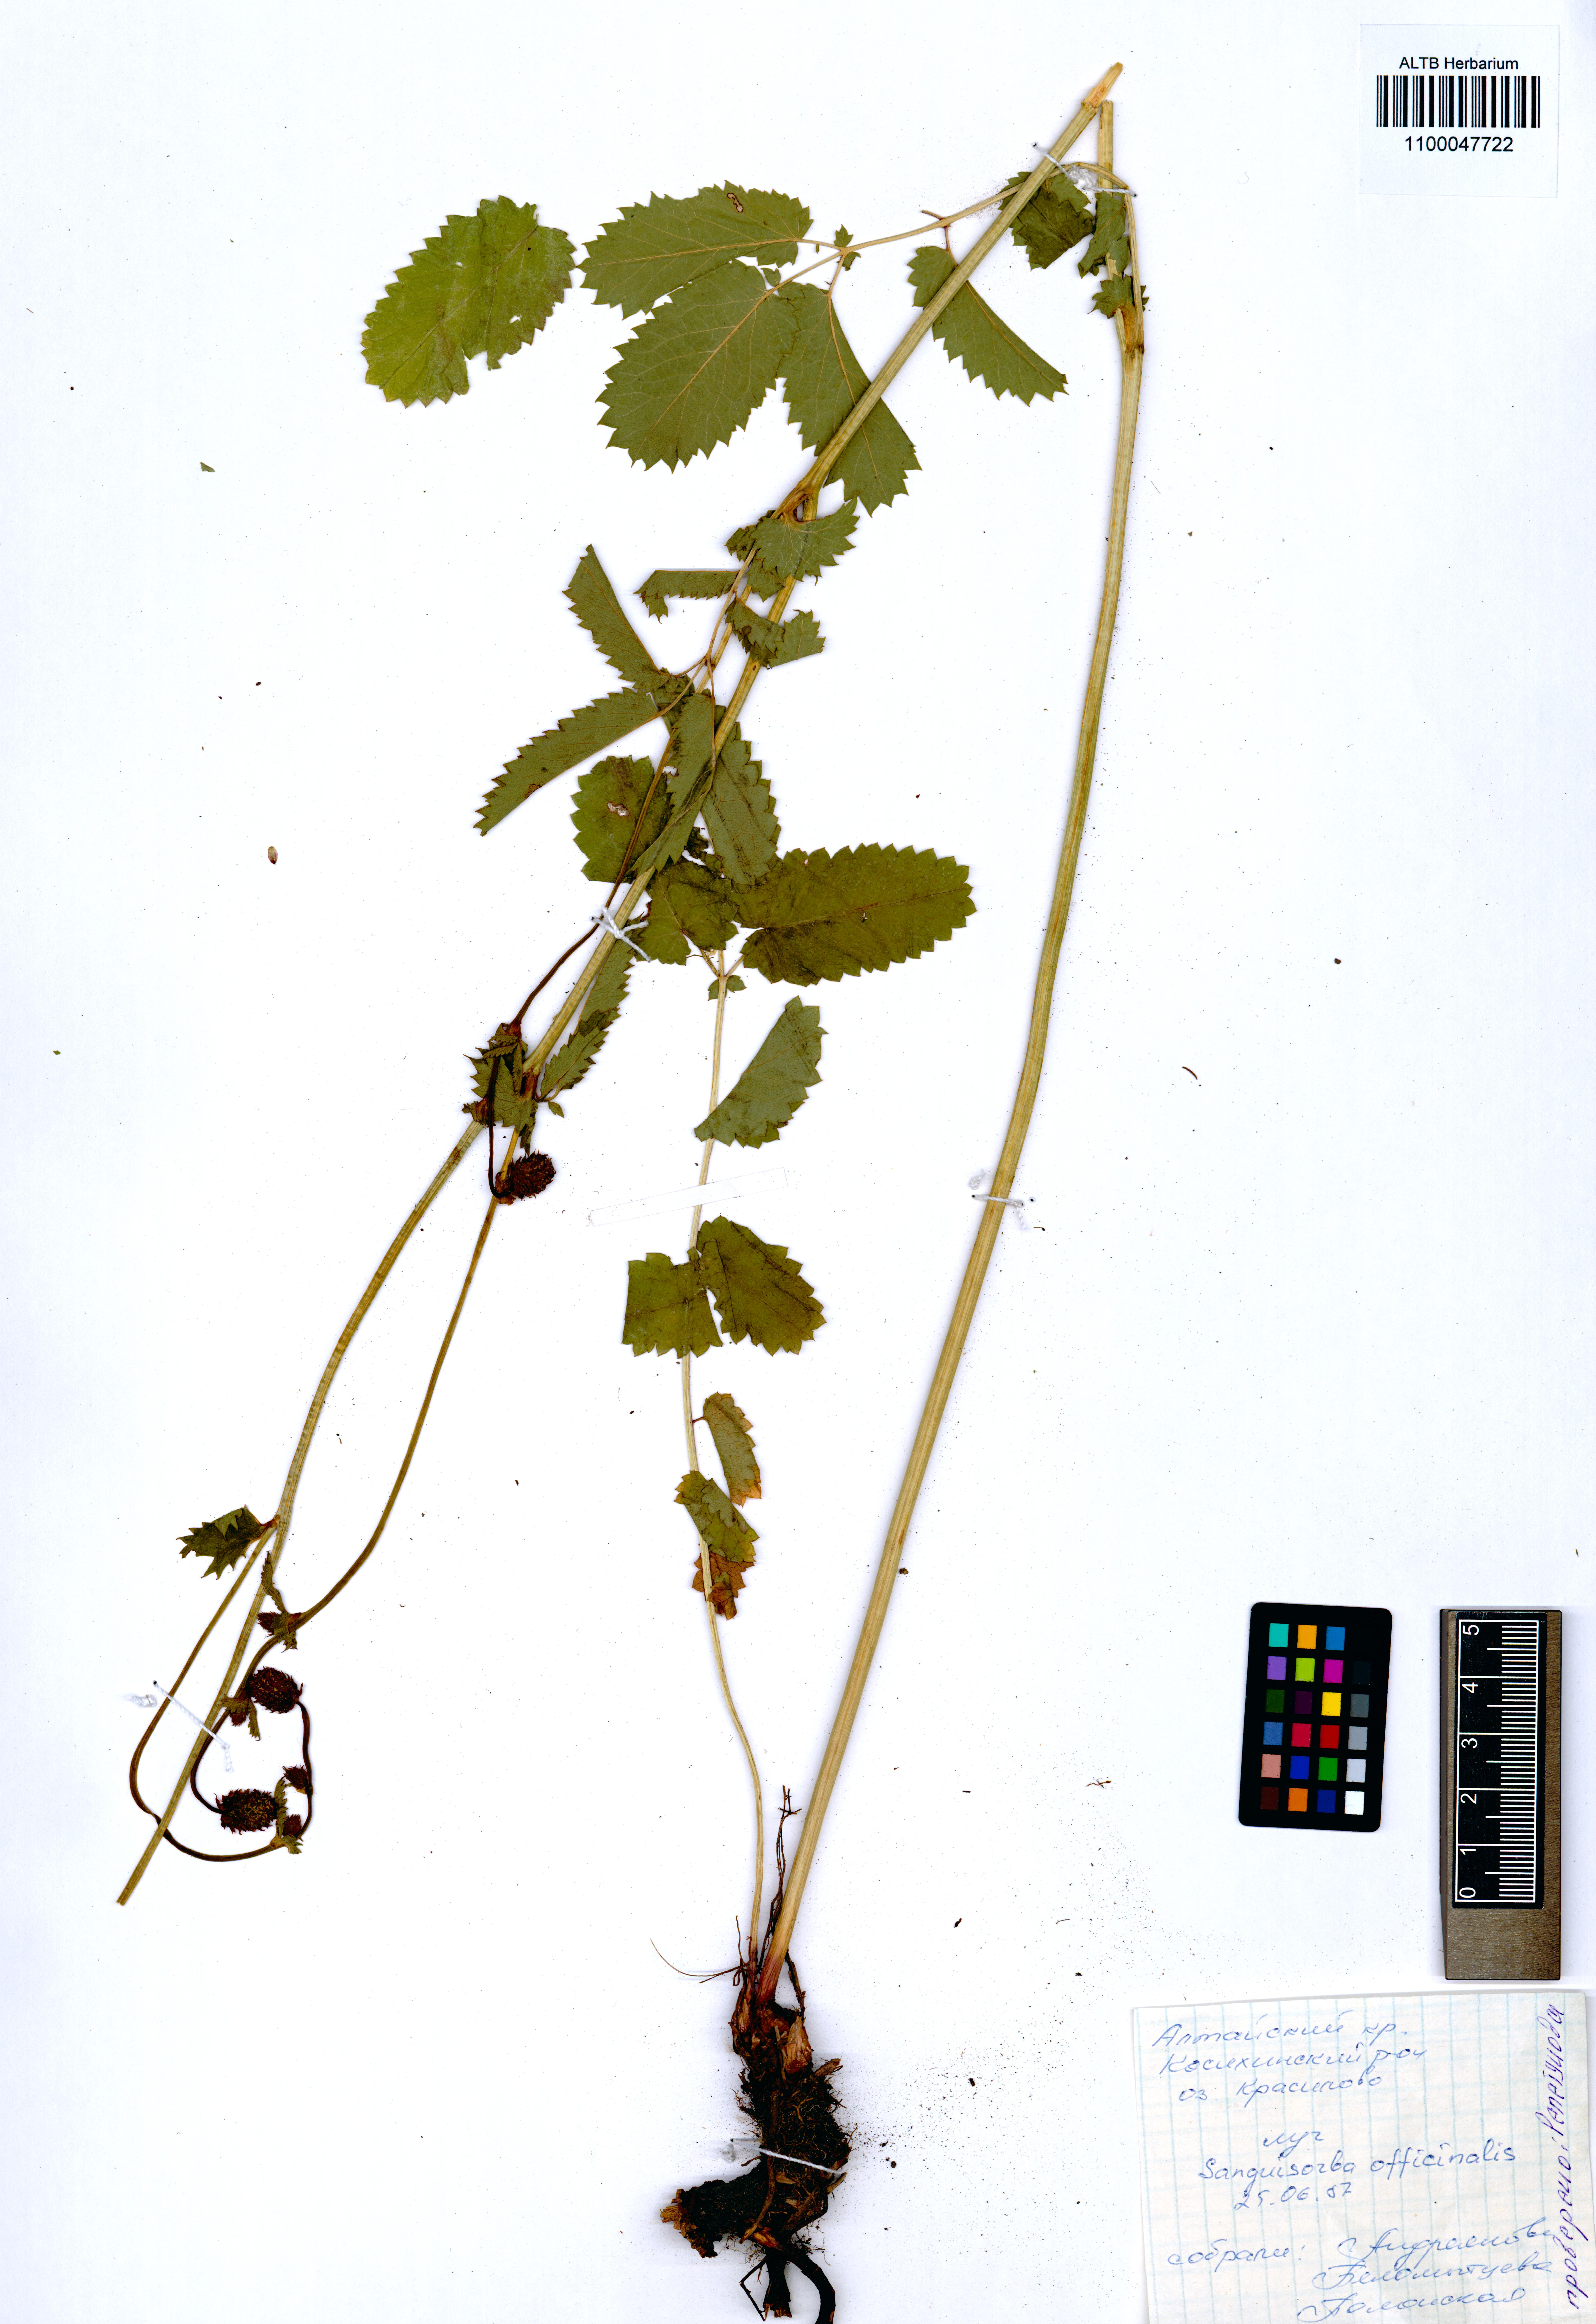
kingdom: Plantae
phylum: Tracheophyta
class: Magnoliopsida
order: Rosales
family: Rosaceae
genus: Sanguisorba
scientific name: Sanguisorba officinalis
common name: Great burnet
